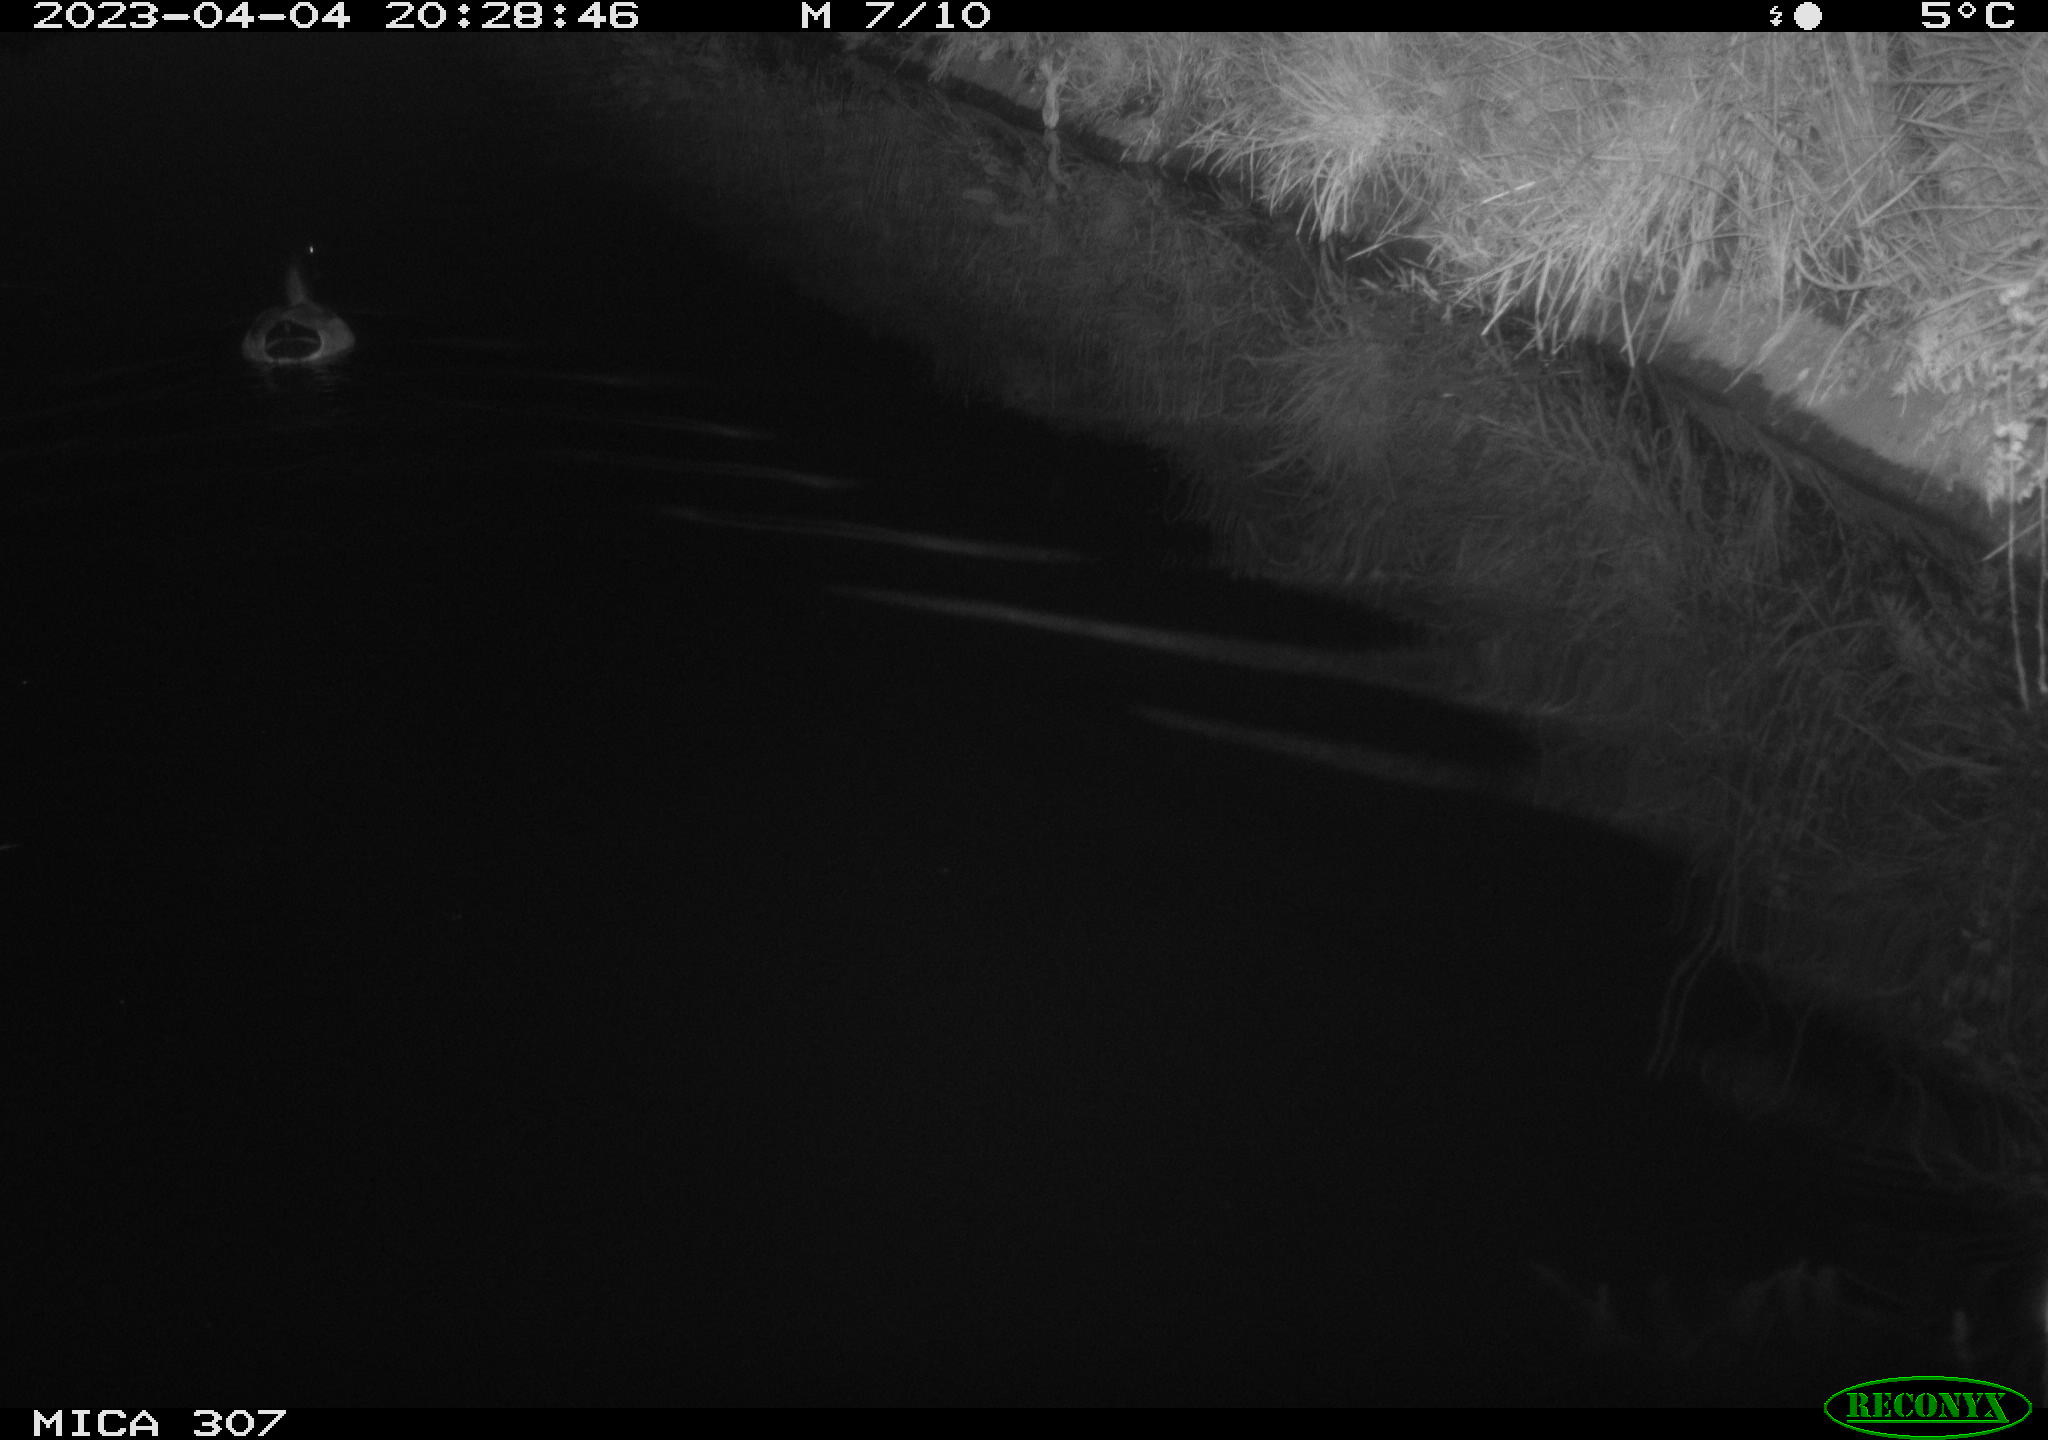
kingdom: Animalia
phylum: Chordata
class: Aves
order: Anseriformes
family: Anatidae
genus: Anas
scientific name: Anas
